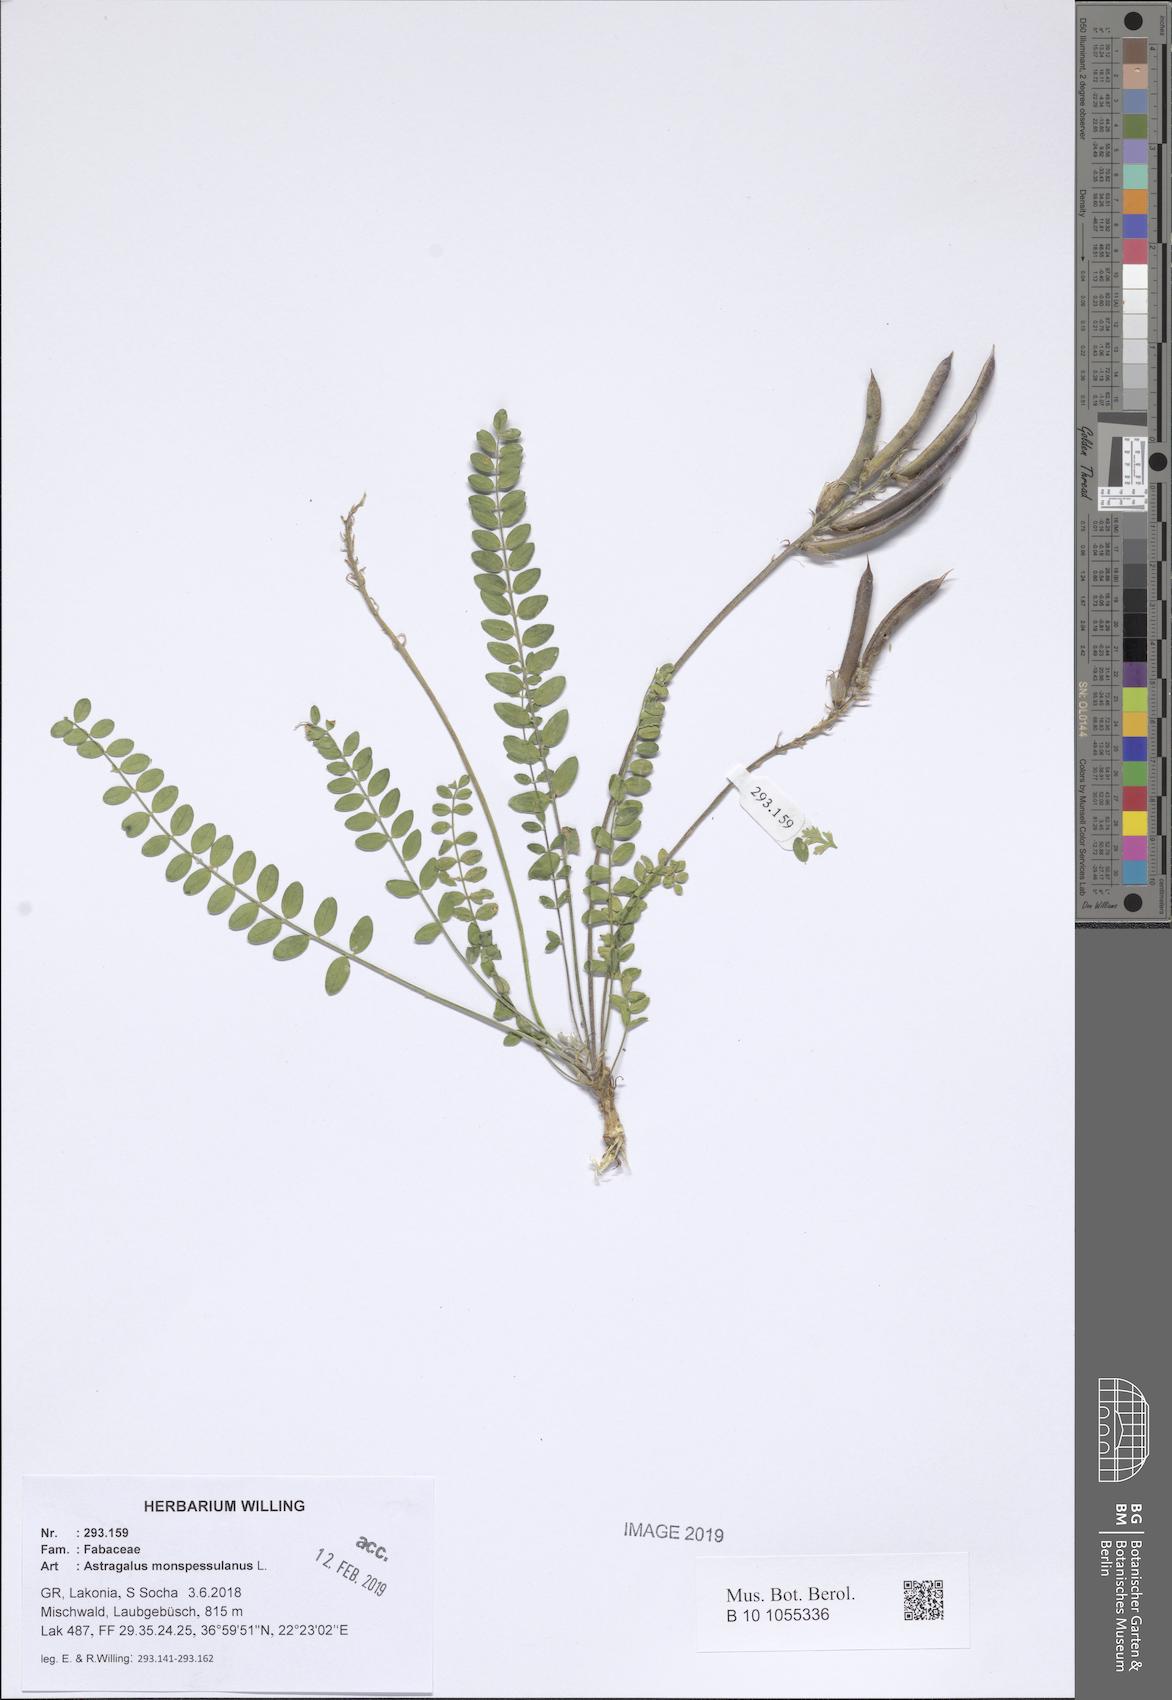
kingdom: Plantae
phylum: Tracheophyta
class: Magnoliopsida
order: Fabales
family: Fabaceae
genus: Astragalus
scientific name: Astragalus monspessulanus
